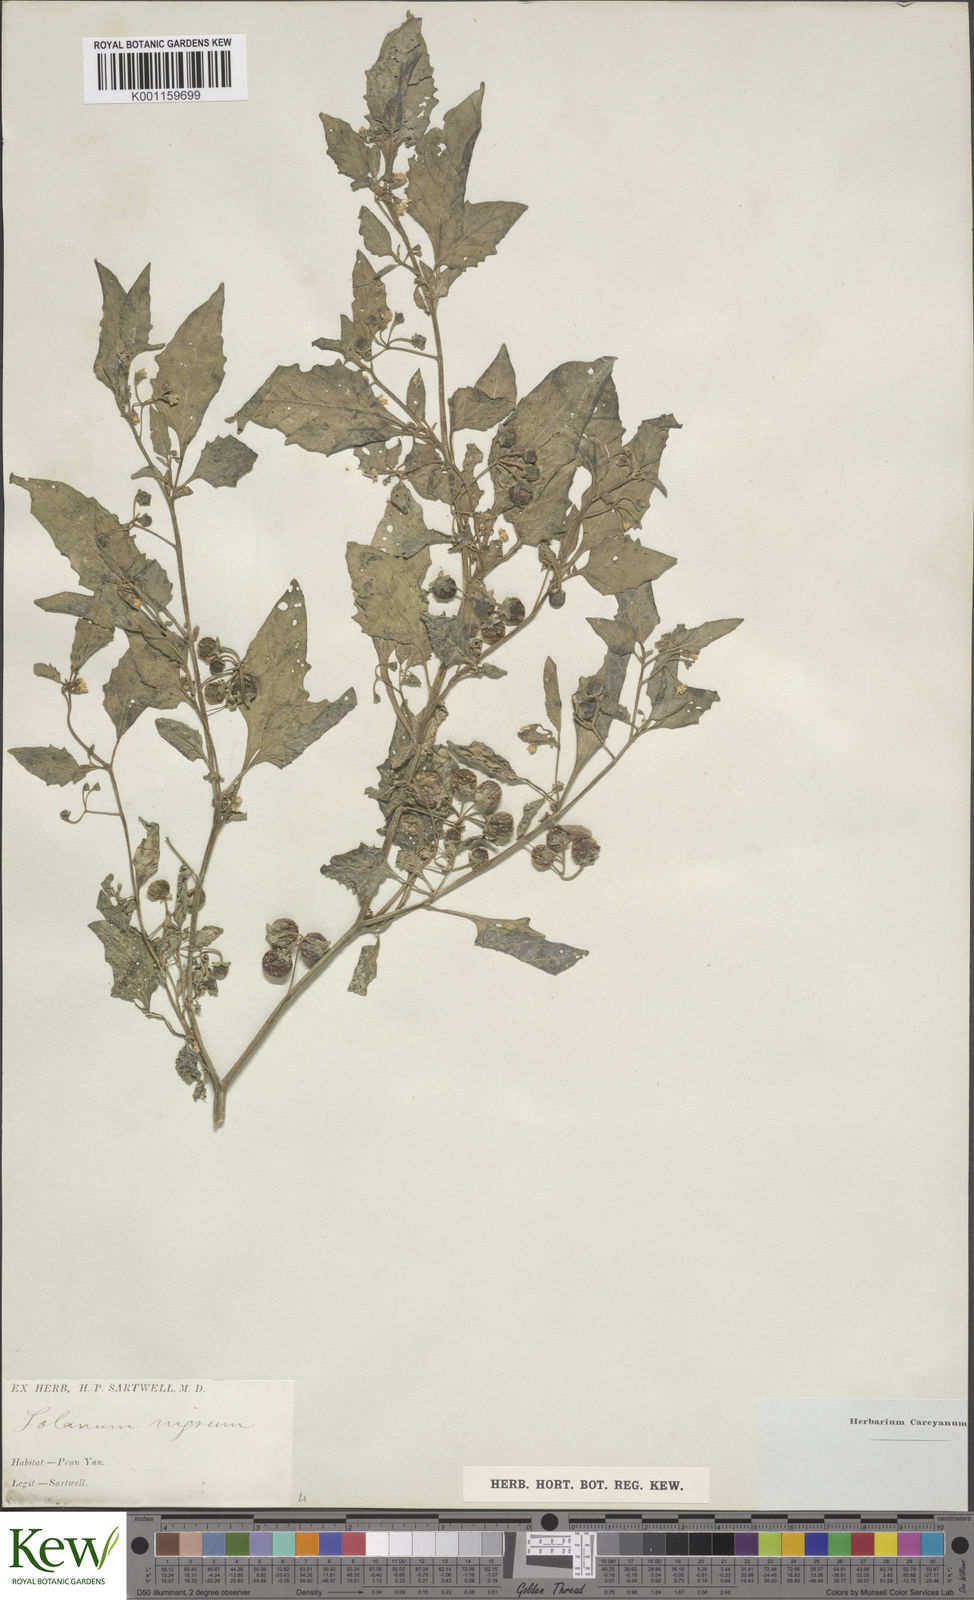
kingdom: Plantae
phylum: Tracheophyta
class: Magnoliopsida
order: Solanales
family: Solanaceae
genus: Solanum
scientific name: Solanum emulans
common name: Eastern black nightshade
